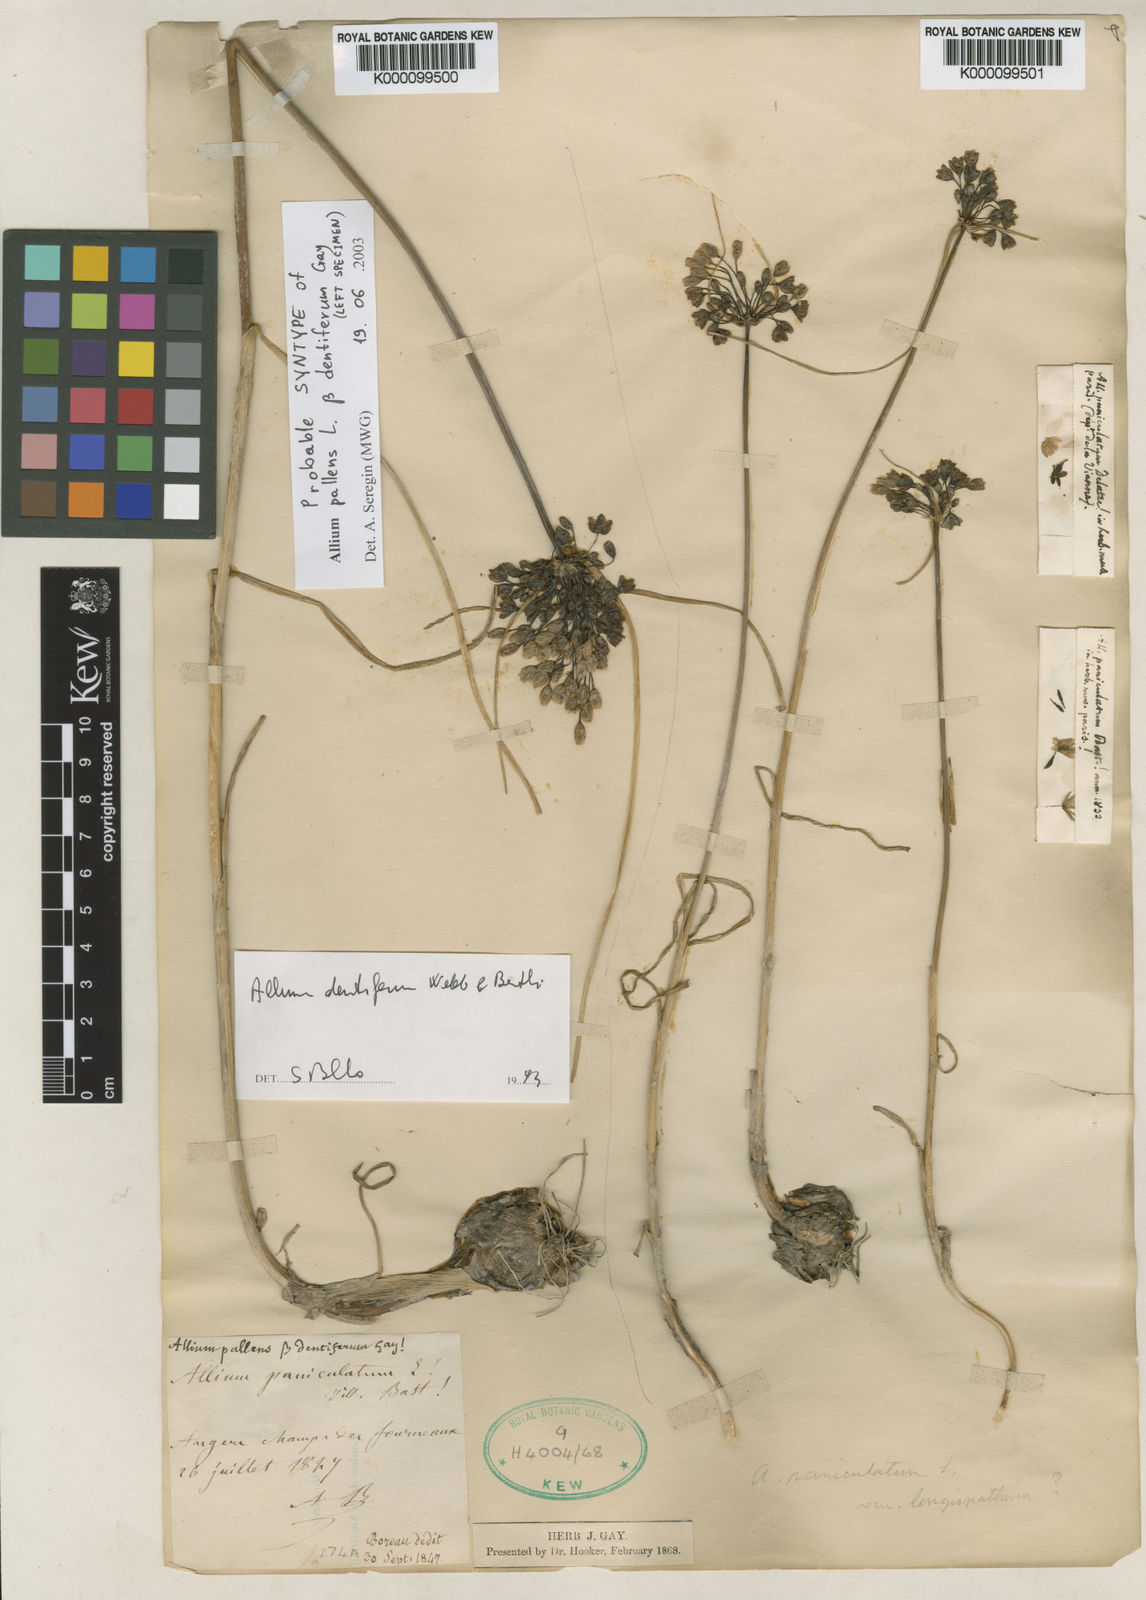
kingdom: Plantae
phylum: Tracheophyta
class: Liliopsida
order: Asparagales
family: Amaryllidaceae
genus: Allium
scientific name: Allium longispathum
